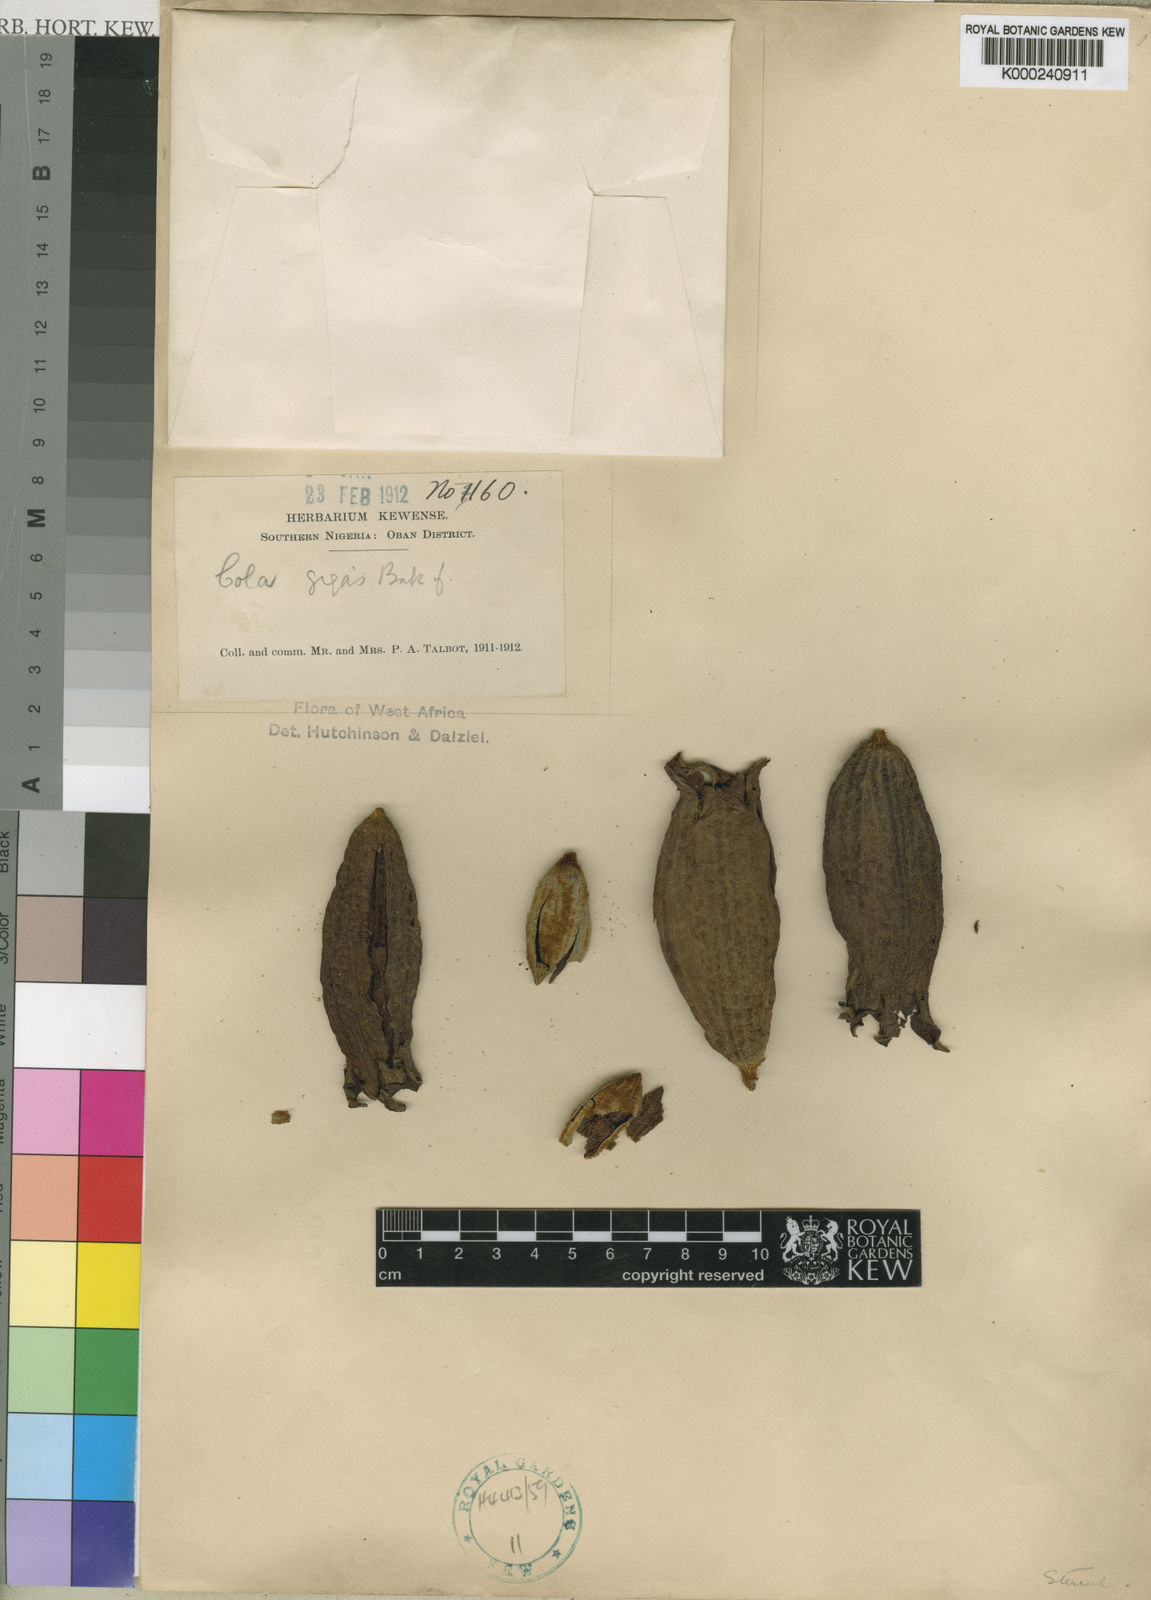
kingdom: Plantae
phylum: Tracheophyta
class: Magnoliopsida
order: Malvales
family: Malvaceae
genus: Cola
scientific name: Cola gigas
